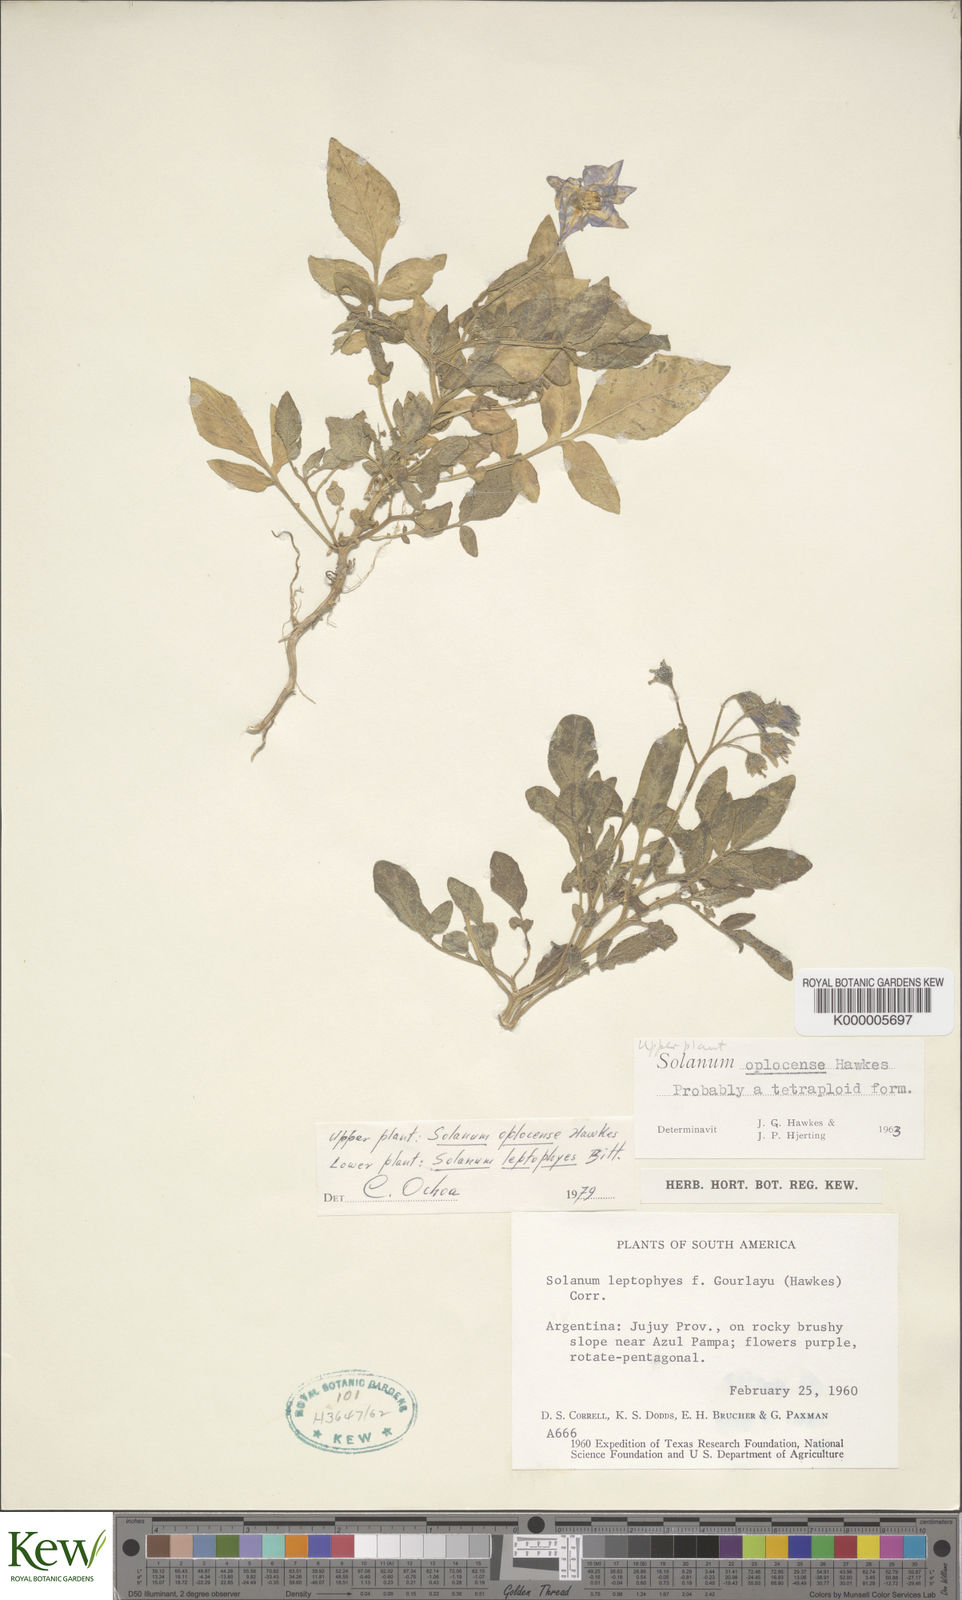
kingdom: Plantae
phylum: Tracheophyta
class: Magnoliopsida
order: Solanales
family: Solanaceae
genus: Solanum
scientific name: Solanum brevicaule
